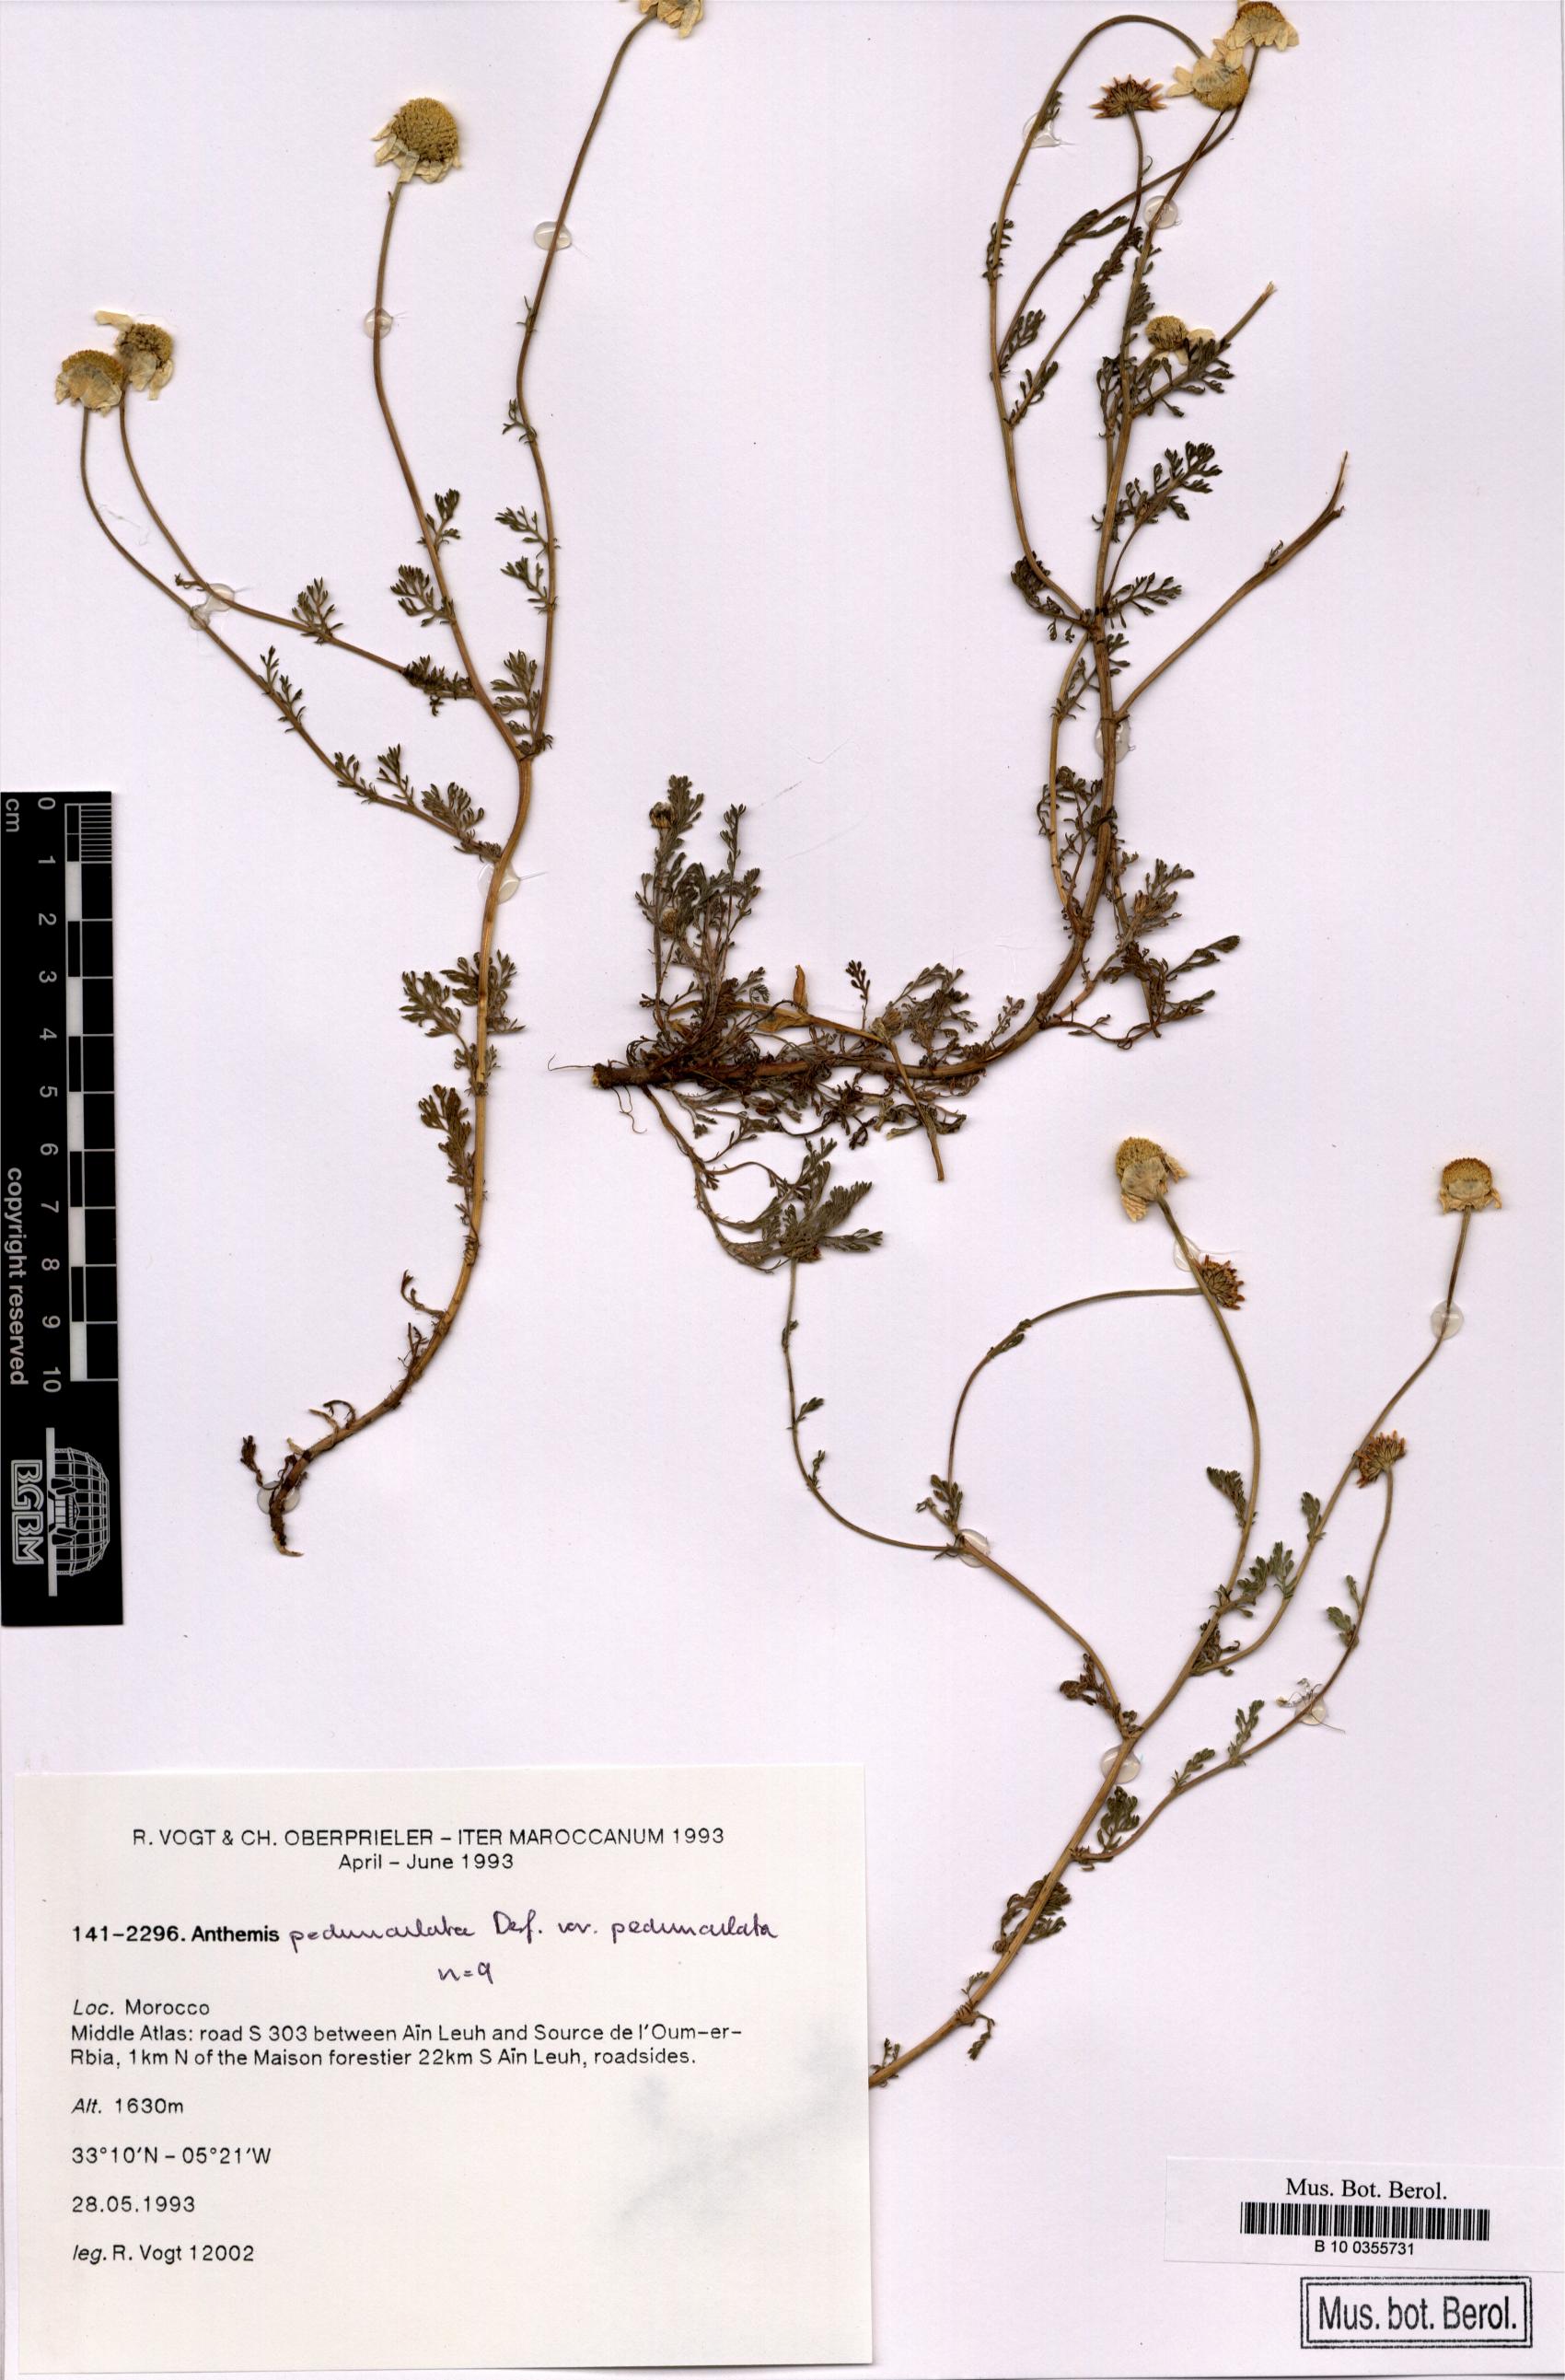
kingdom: Plantae
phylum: Tracheophyta
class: Magnoliopsida
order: Asterales
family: Asteraceae
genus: Anthemis
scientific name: Anthemis pedunculata
